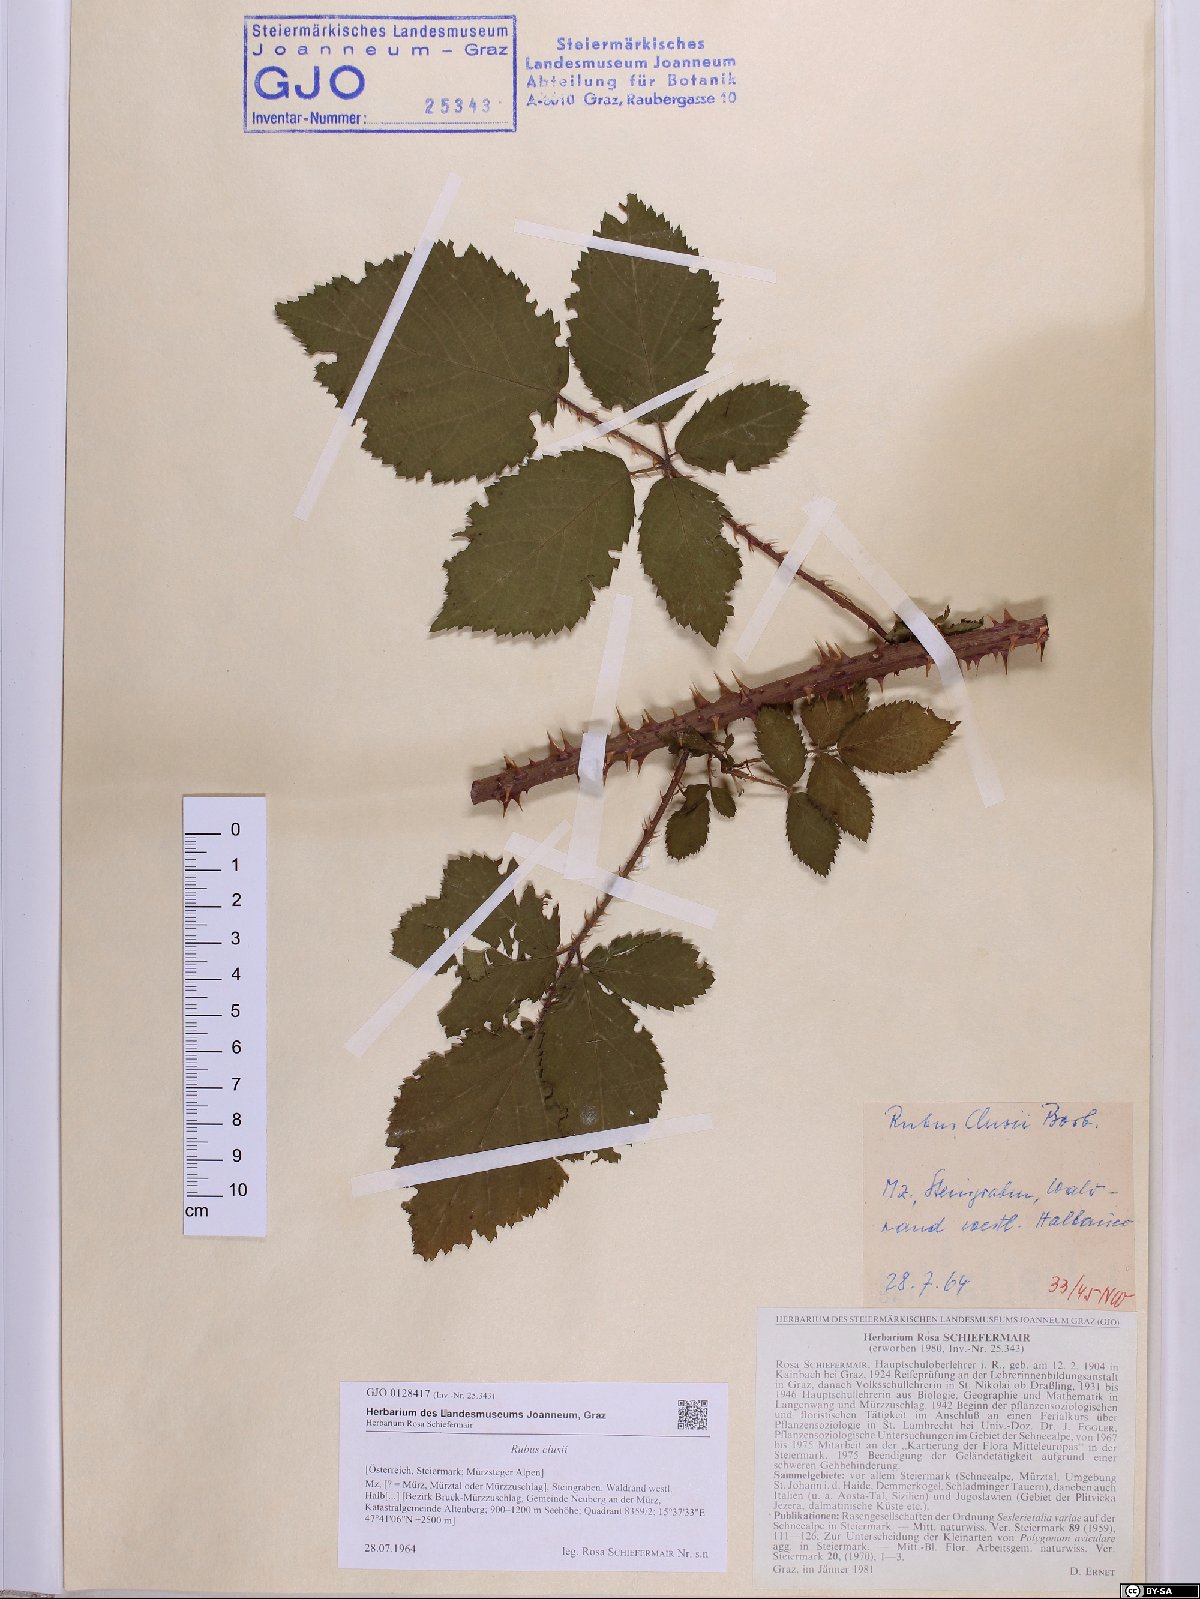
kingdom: Plantae
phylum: Tracheophyta
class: Magnoliopsida
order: Rosales
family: Rosaceae
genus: Rubus
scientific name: Rubus clusii
